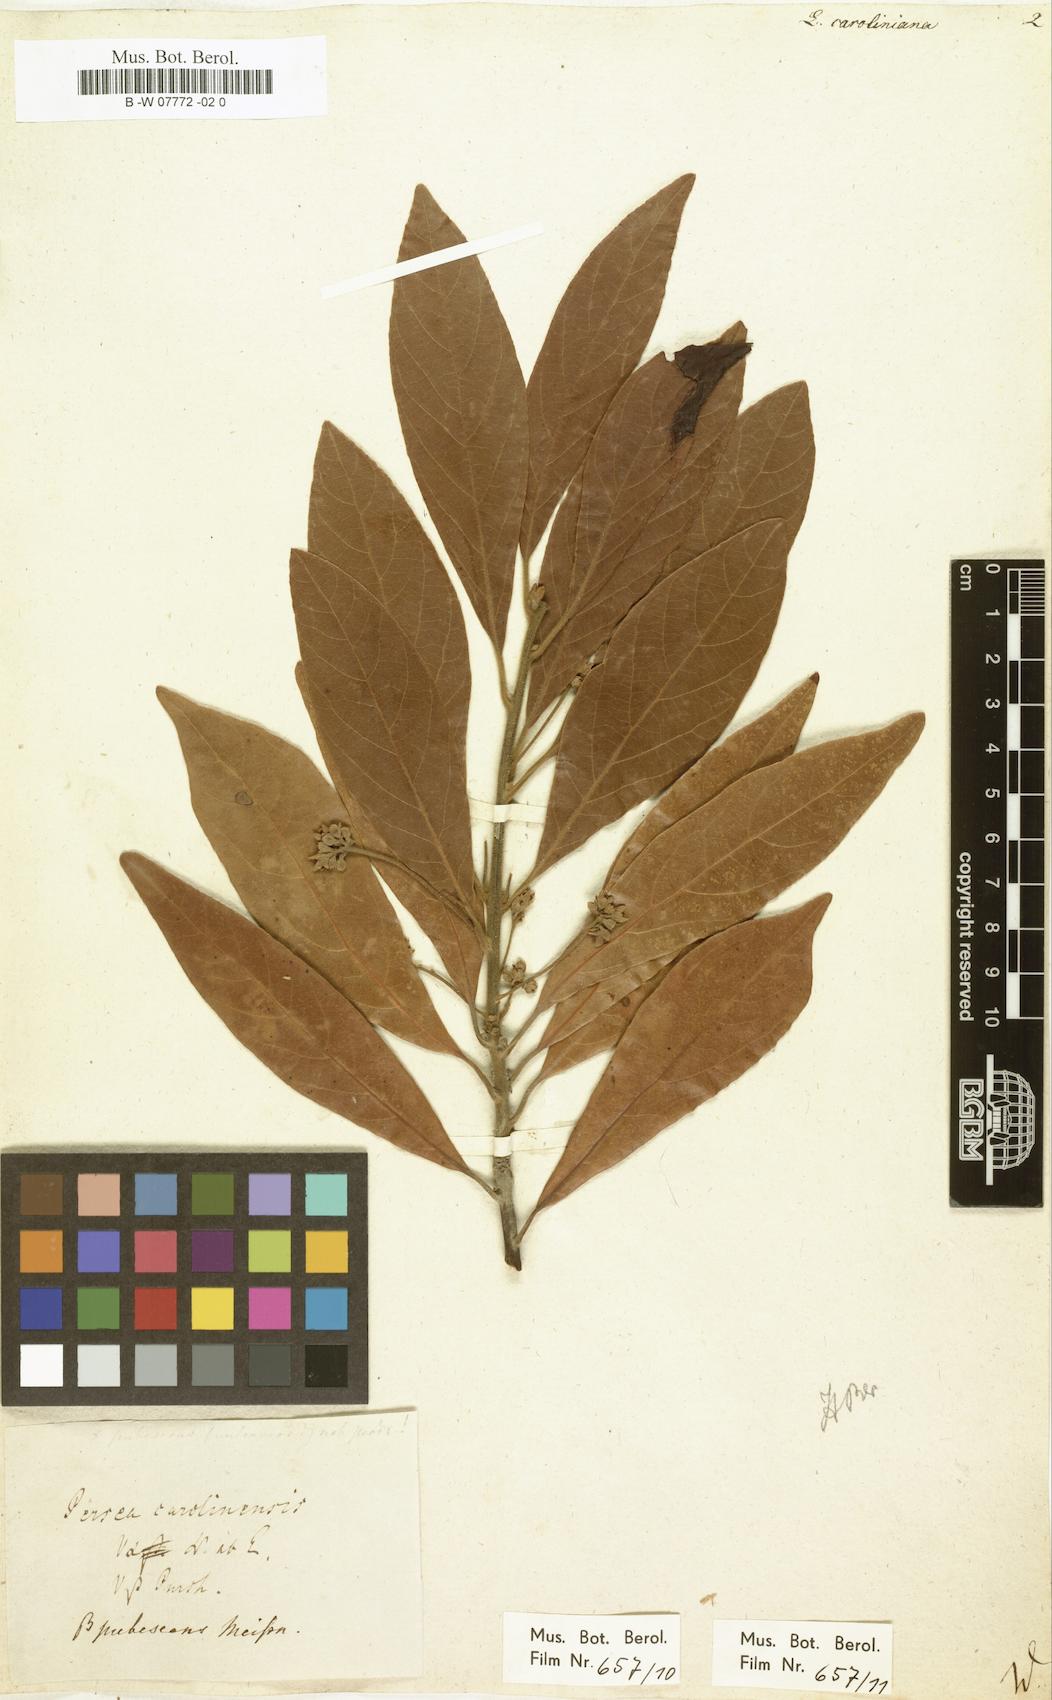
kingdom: Plantae
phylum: Tracheophyta
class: Magnoliopsida
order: Laurales
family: Lauraceae
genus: Laurus
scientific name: Laurus
